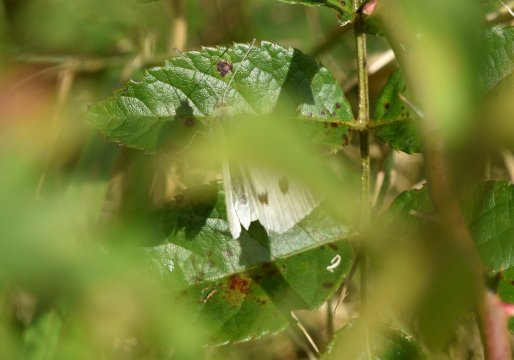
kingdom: Animalia
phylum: Arthropoda
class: Insecta
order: Lepidoptera
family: Pieridae
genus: Pieris
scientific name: Pieris rapae
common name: Cabbage White
